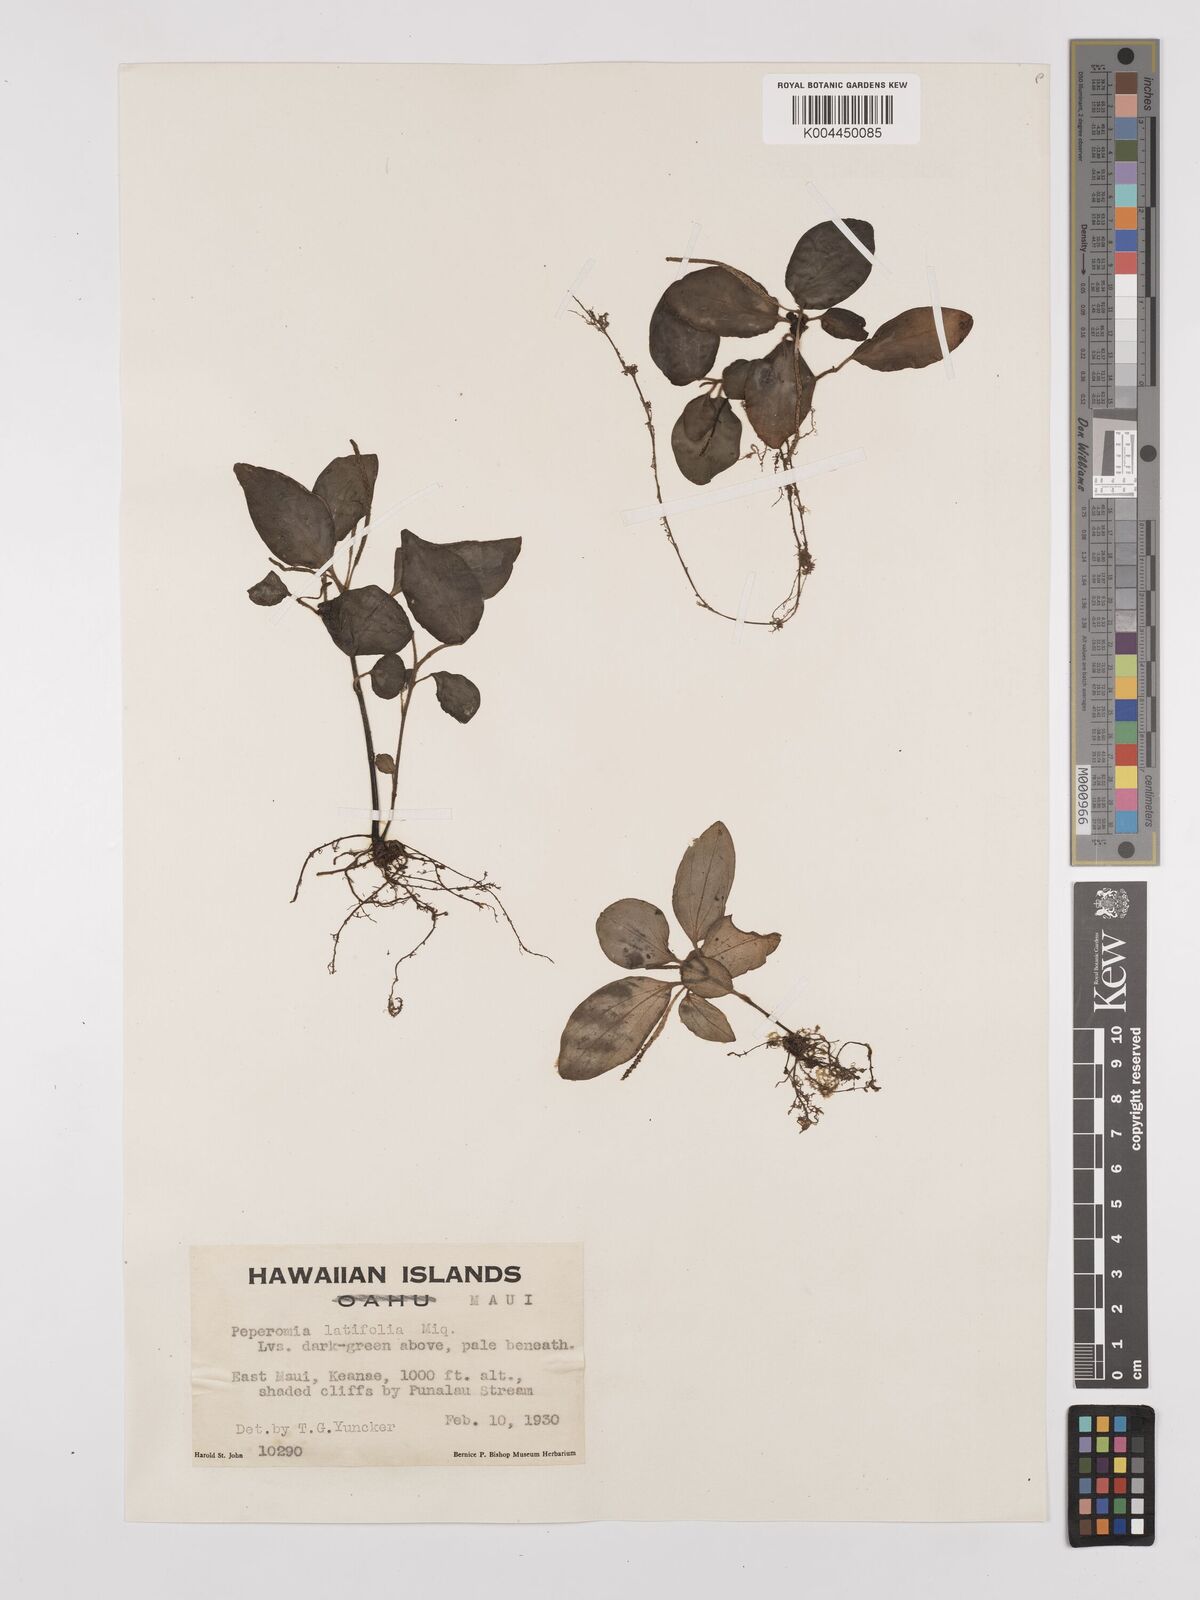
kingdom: Plantae
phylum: Tracheophyta
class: Magnoliopsida
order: Piperales
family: Piperaceae
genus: Peperomia
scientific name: Peperomia latifolia
